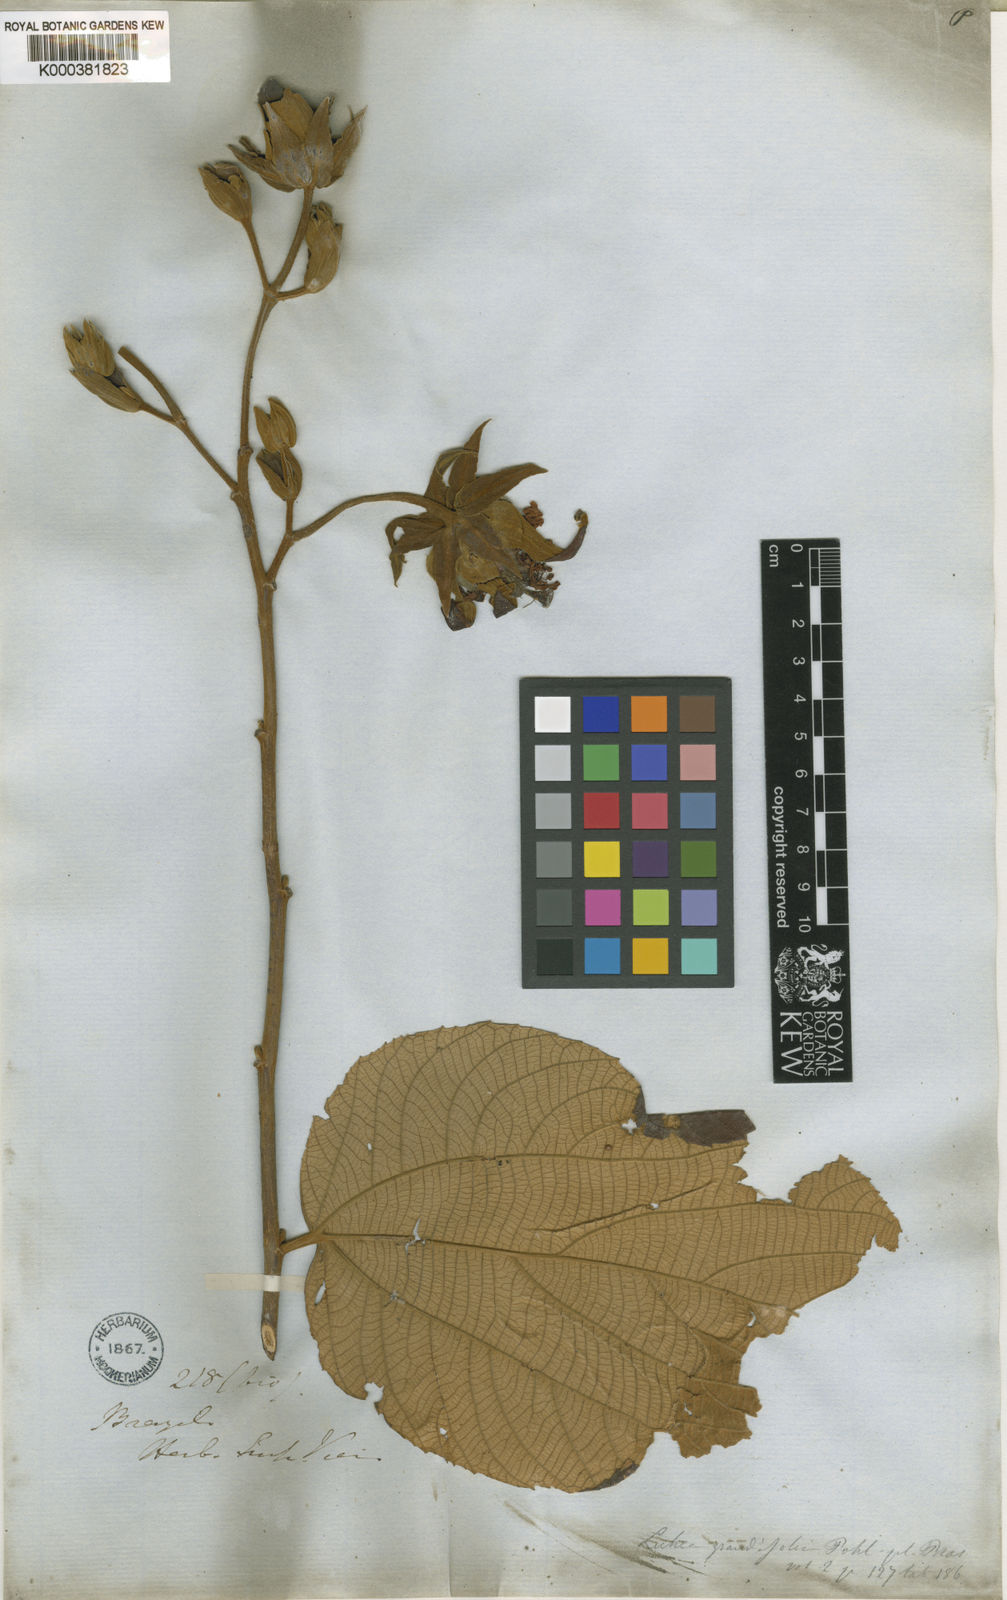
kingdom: Plantae
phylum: Tracheophyta
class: Magnoliopsida
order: Malvales
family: Malvaceae
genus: Luehea
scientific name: Luehea grandiflora
